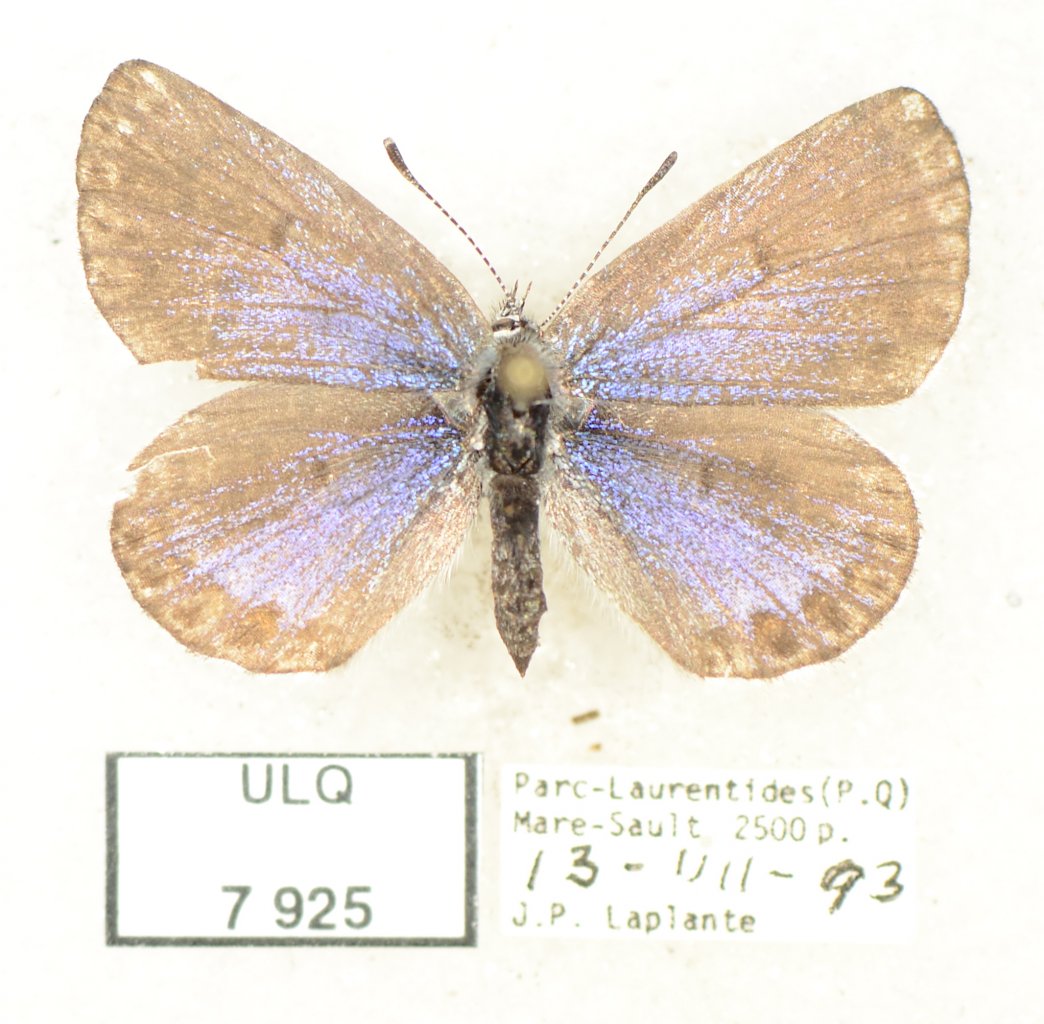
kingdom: Animalia
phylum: Arthropoda
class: Insecta
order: Lepidoptera
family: Lycaenidae
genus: Lycaeides
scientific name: Lycaeides idas
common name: Northern Blue
